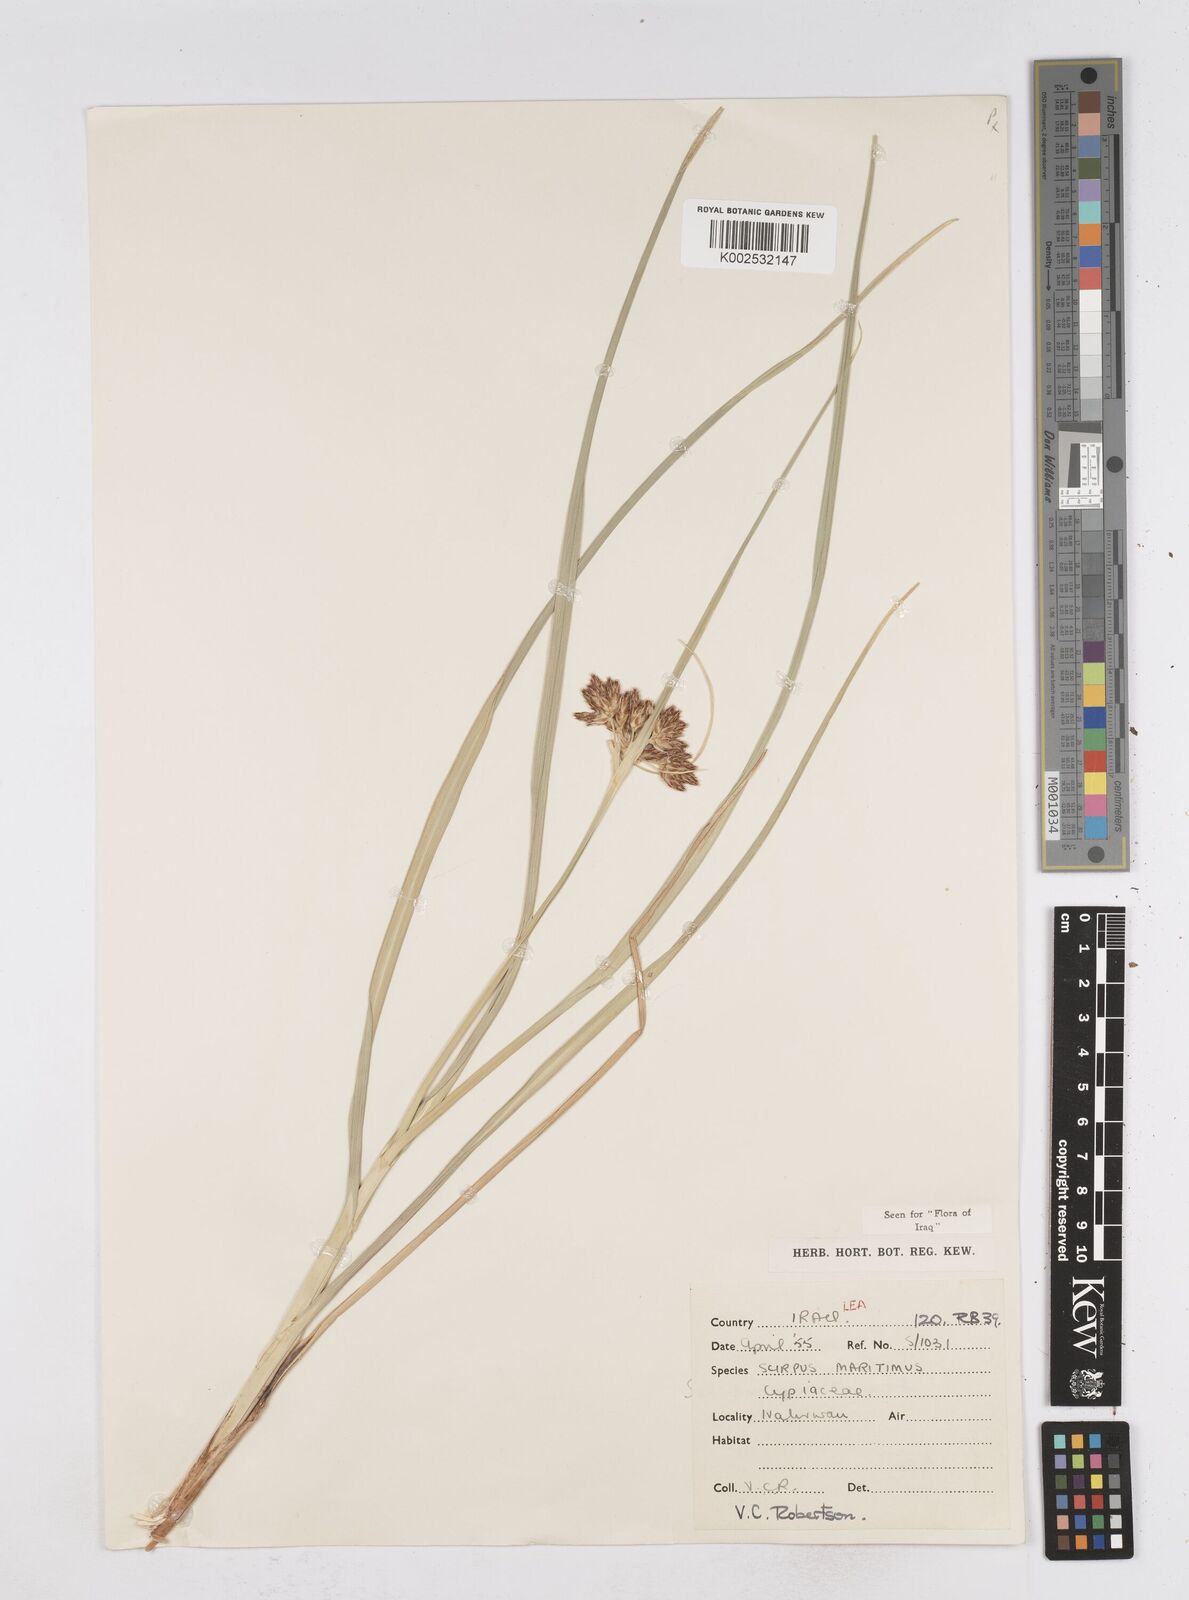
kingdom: Plantae
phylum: Tracheophyta
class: Liliopsida
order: Poales
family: Cyperaceae
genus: Bolboschoenus
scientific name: Bolboschoenus maritimus
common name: Sea club-rush
